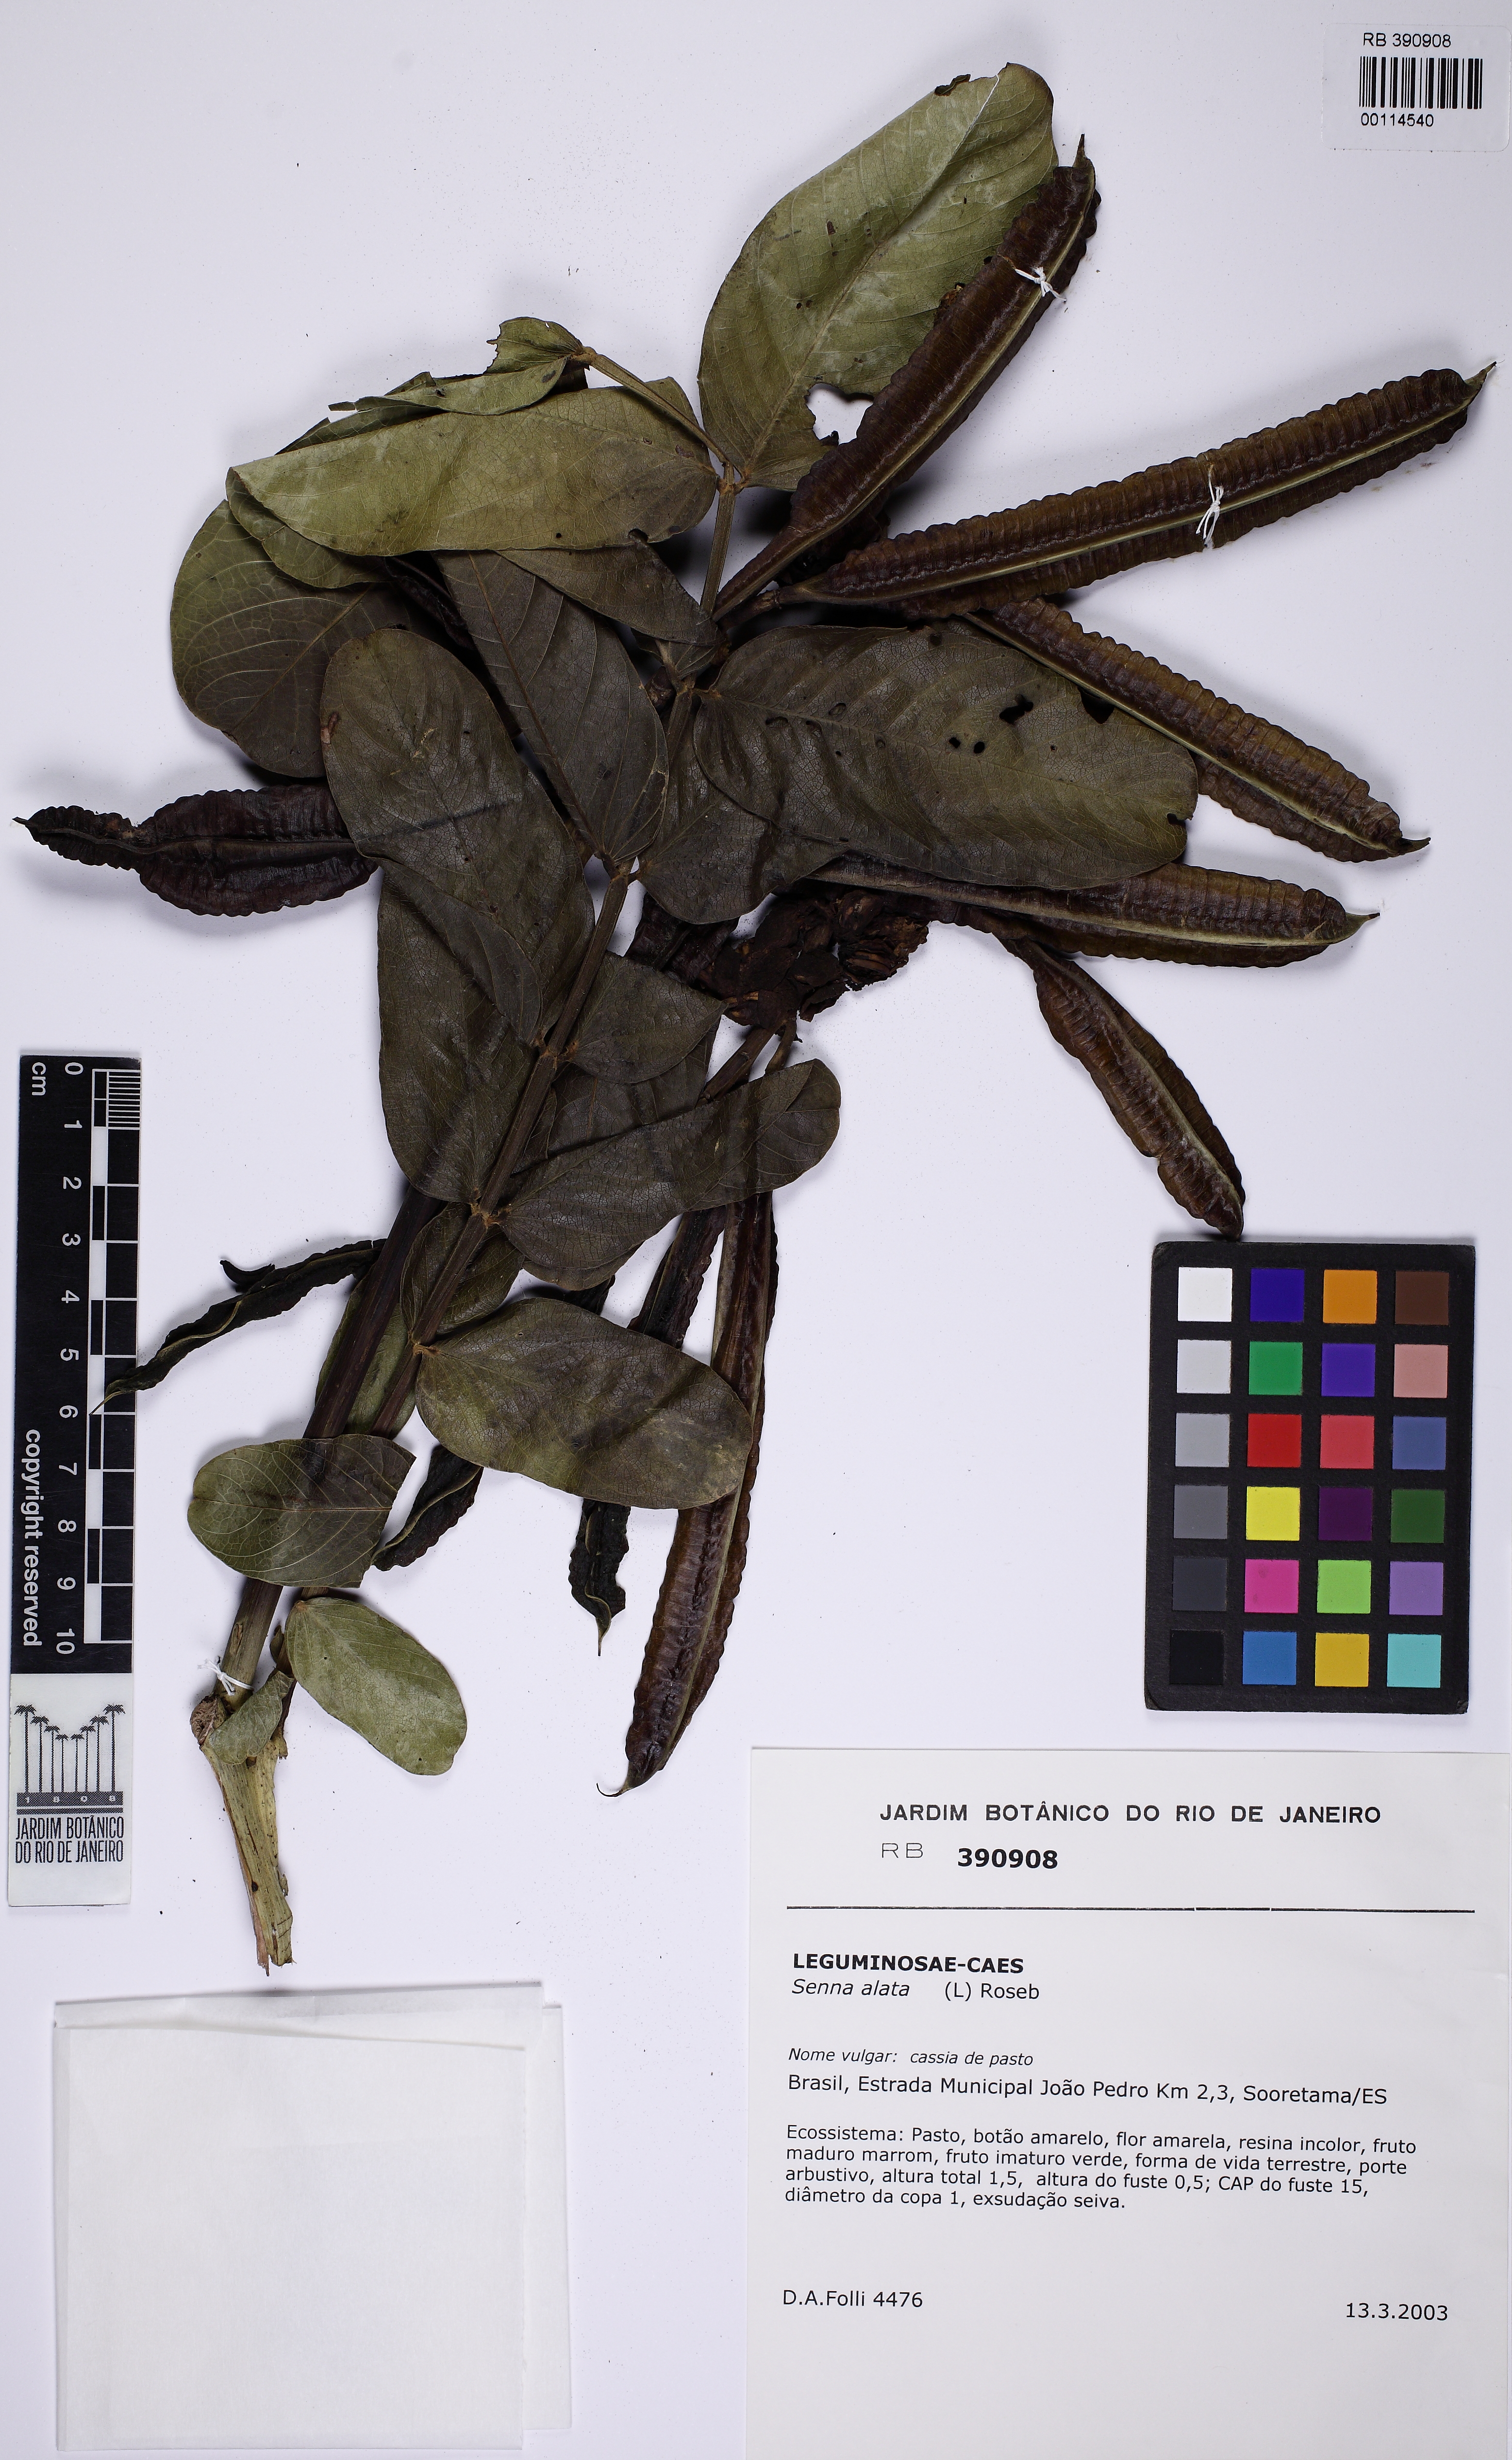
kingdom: Plantae
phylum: Tracheophyta
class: Magnoliopsida
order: Fabales
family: Fabaceae
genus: Senna
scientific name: Senna alata
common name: Emperor's candlesticks
